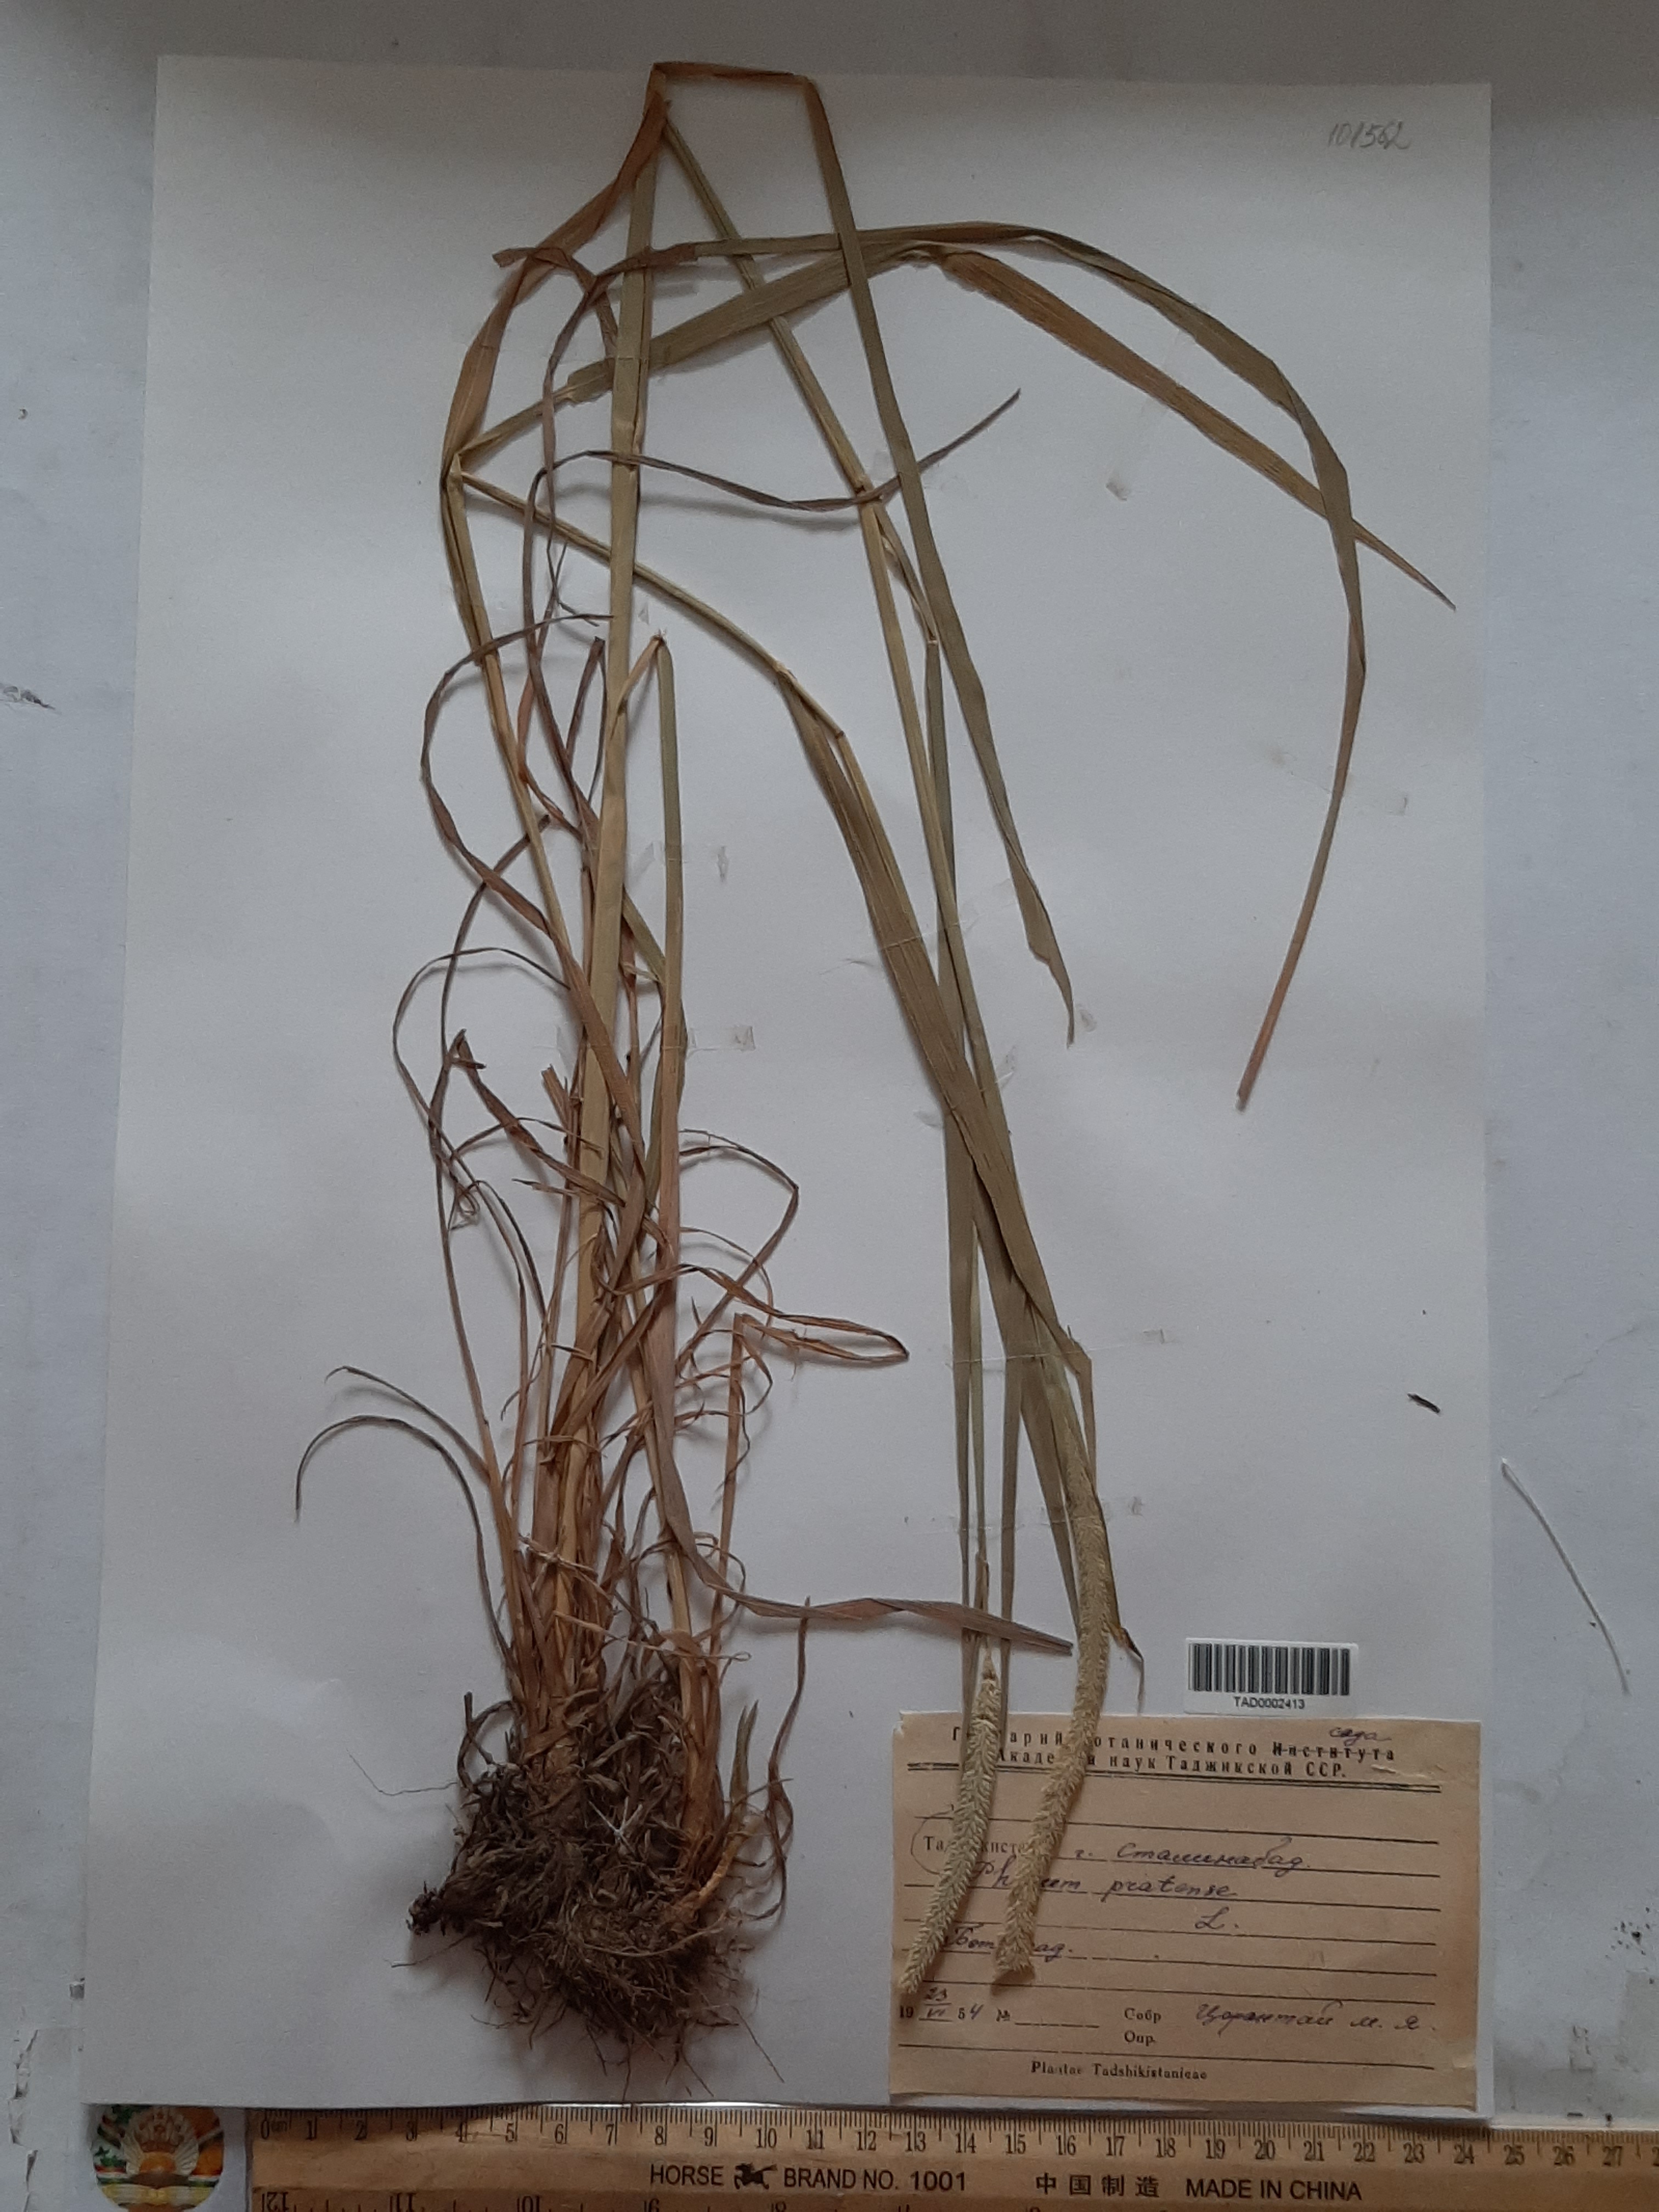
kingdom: Plantae
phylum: Tracheophyta
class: Liliopsida
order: Poales
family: Poaceae
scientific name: Poaceae
